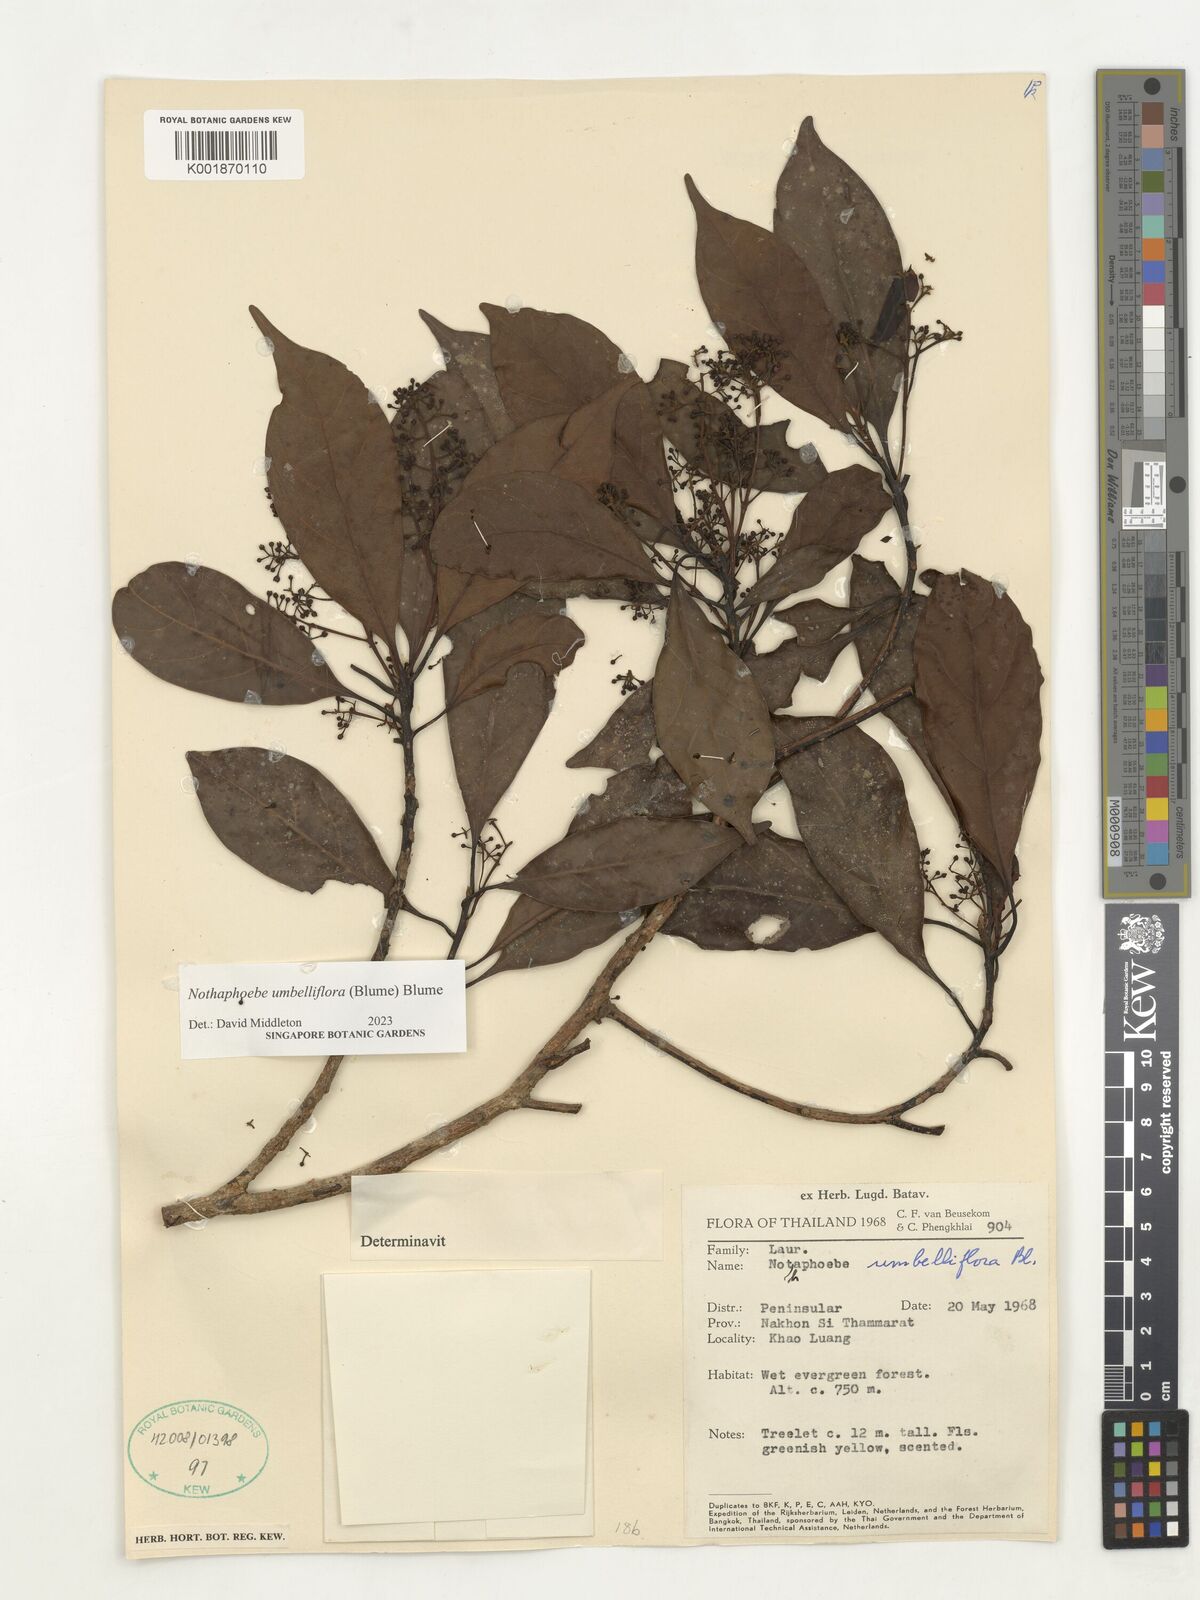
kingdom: Plantae
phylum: Tracheophyta
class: Magnoliopsida
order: Laurales
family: Lauraceae
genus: Nothaphoebe
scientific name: Nothaphoebe umbelliflora
